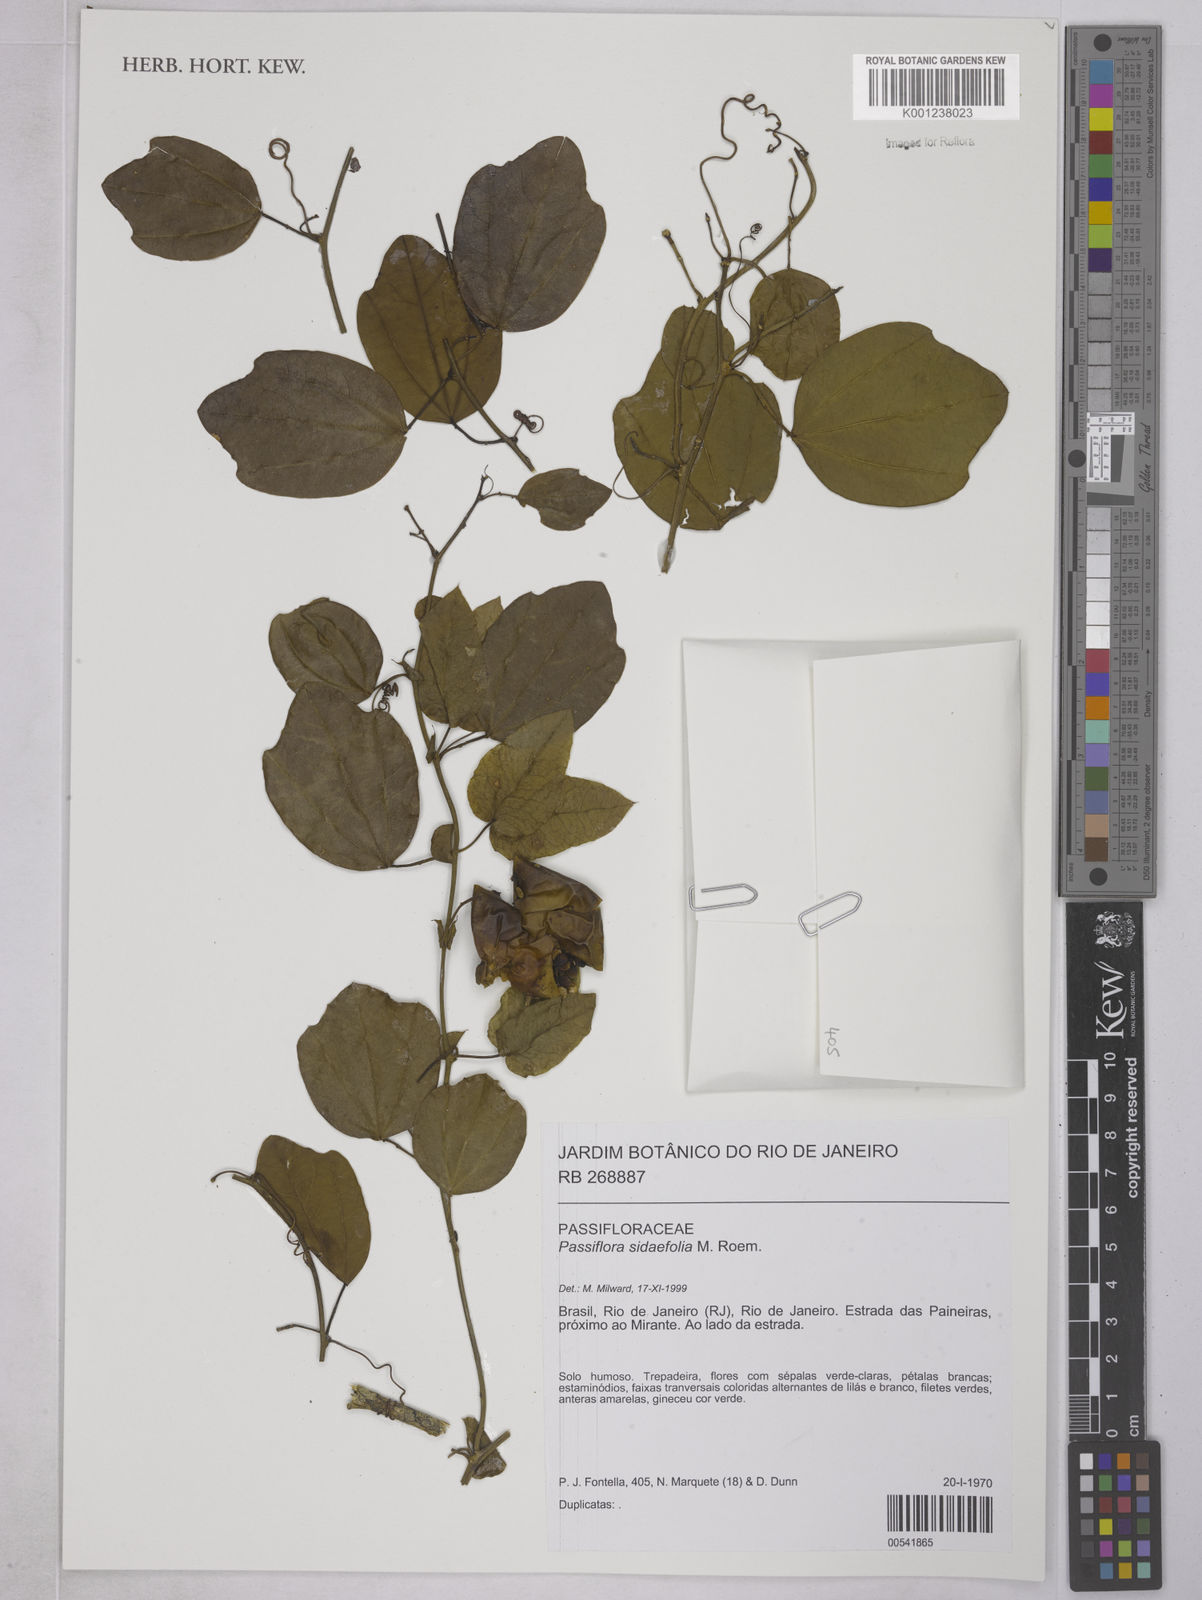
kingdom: Plantae
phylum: Tracheophyta
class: Magnoliopsida
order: Malpighiales
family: Passifloraceae
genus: Passiflora
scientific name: Passiflora tetraden
